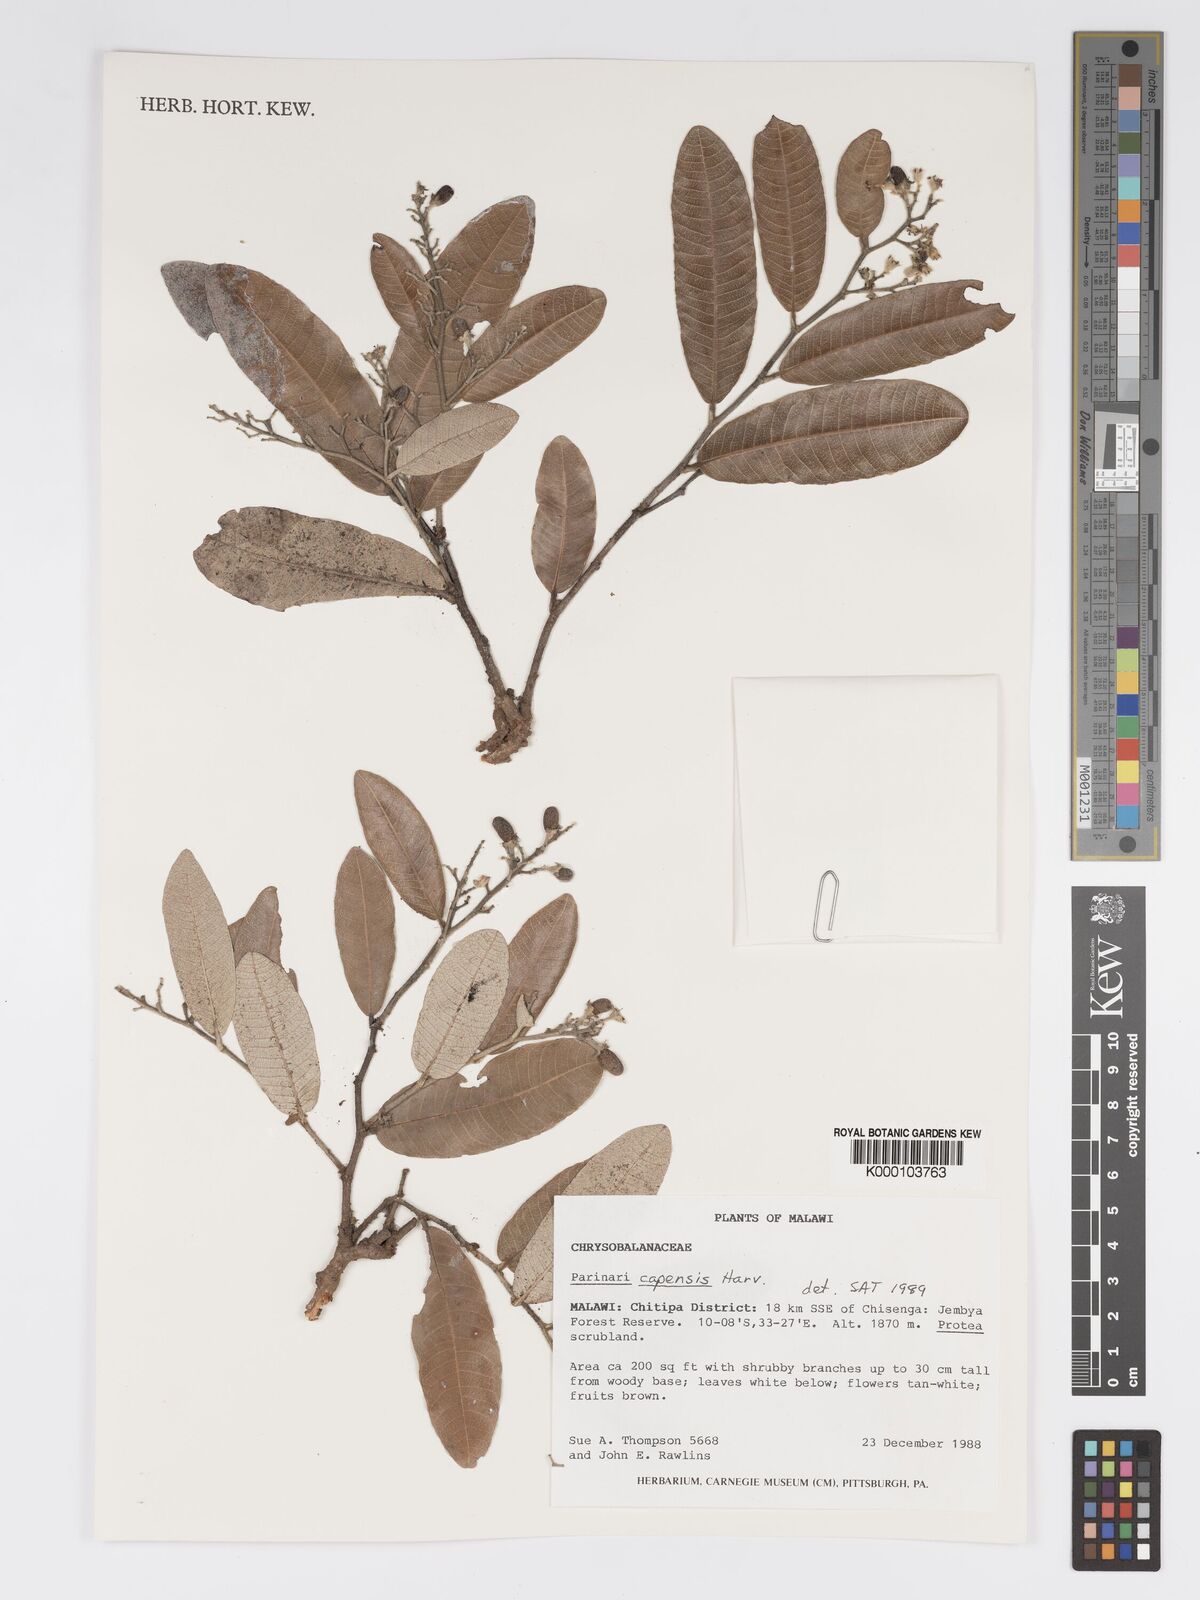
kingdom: Plantae
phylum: Tracheophyta
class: Magnoliopsida
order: Malpighiales
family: Chrysobalanaceae
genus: Parinari
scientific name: Parinari capensis
